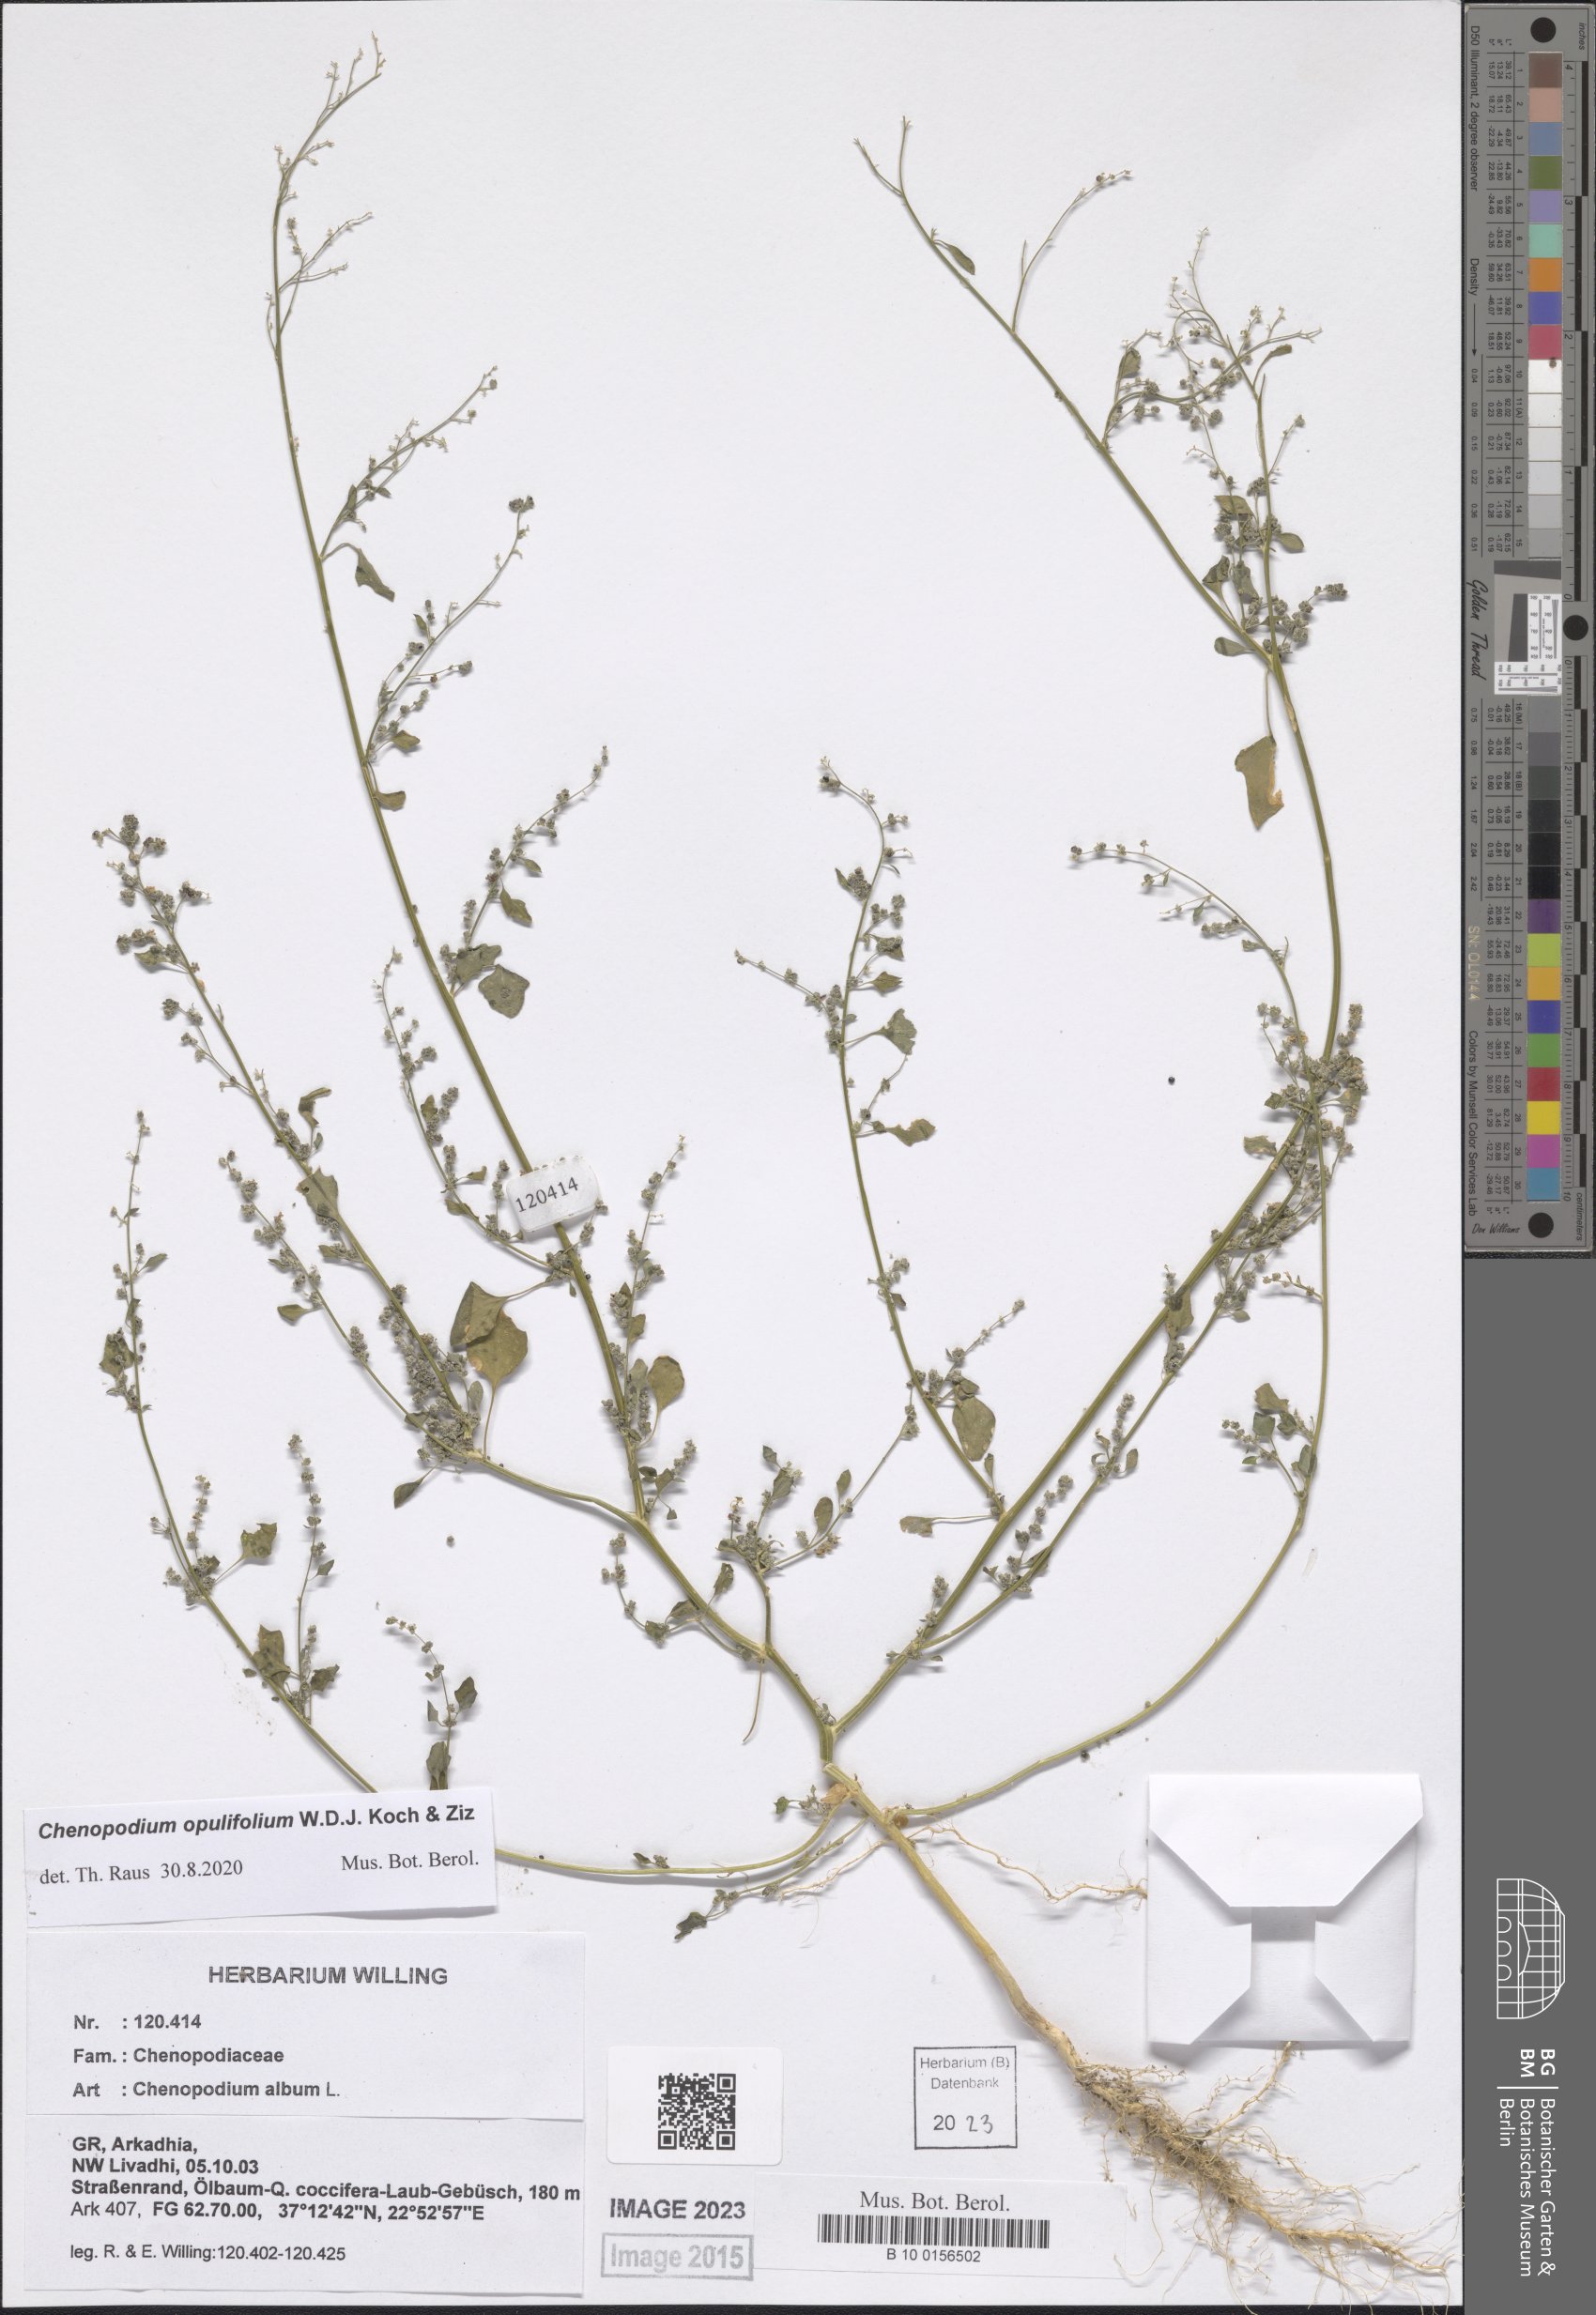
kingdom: Plantae
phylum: Tracheophyta
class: Magnoliopsida
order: Caryophyllales
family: Amaranthaceae
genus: Chenopodium
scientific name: Chenopodium opulifolium
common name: Grey goosefoot
